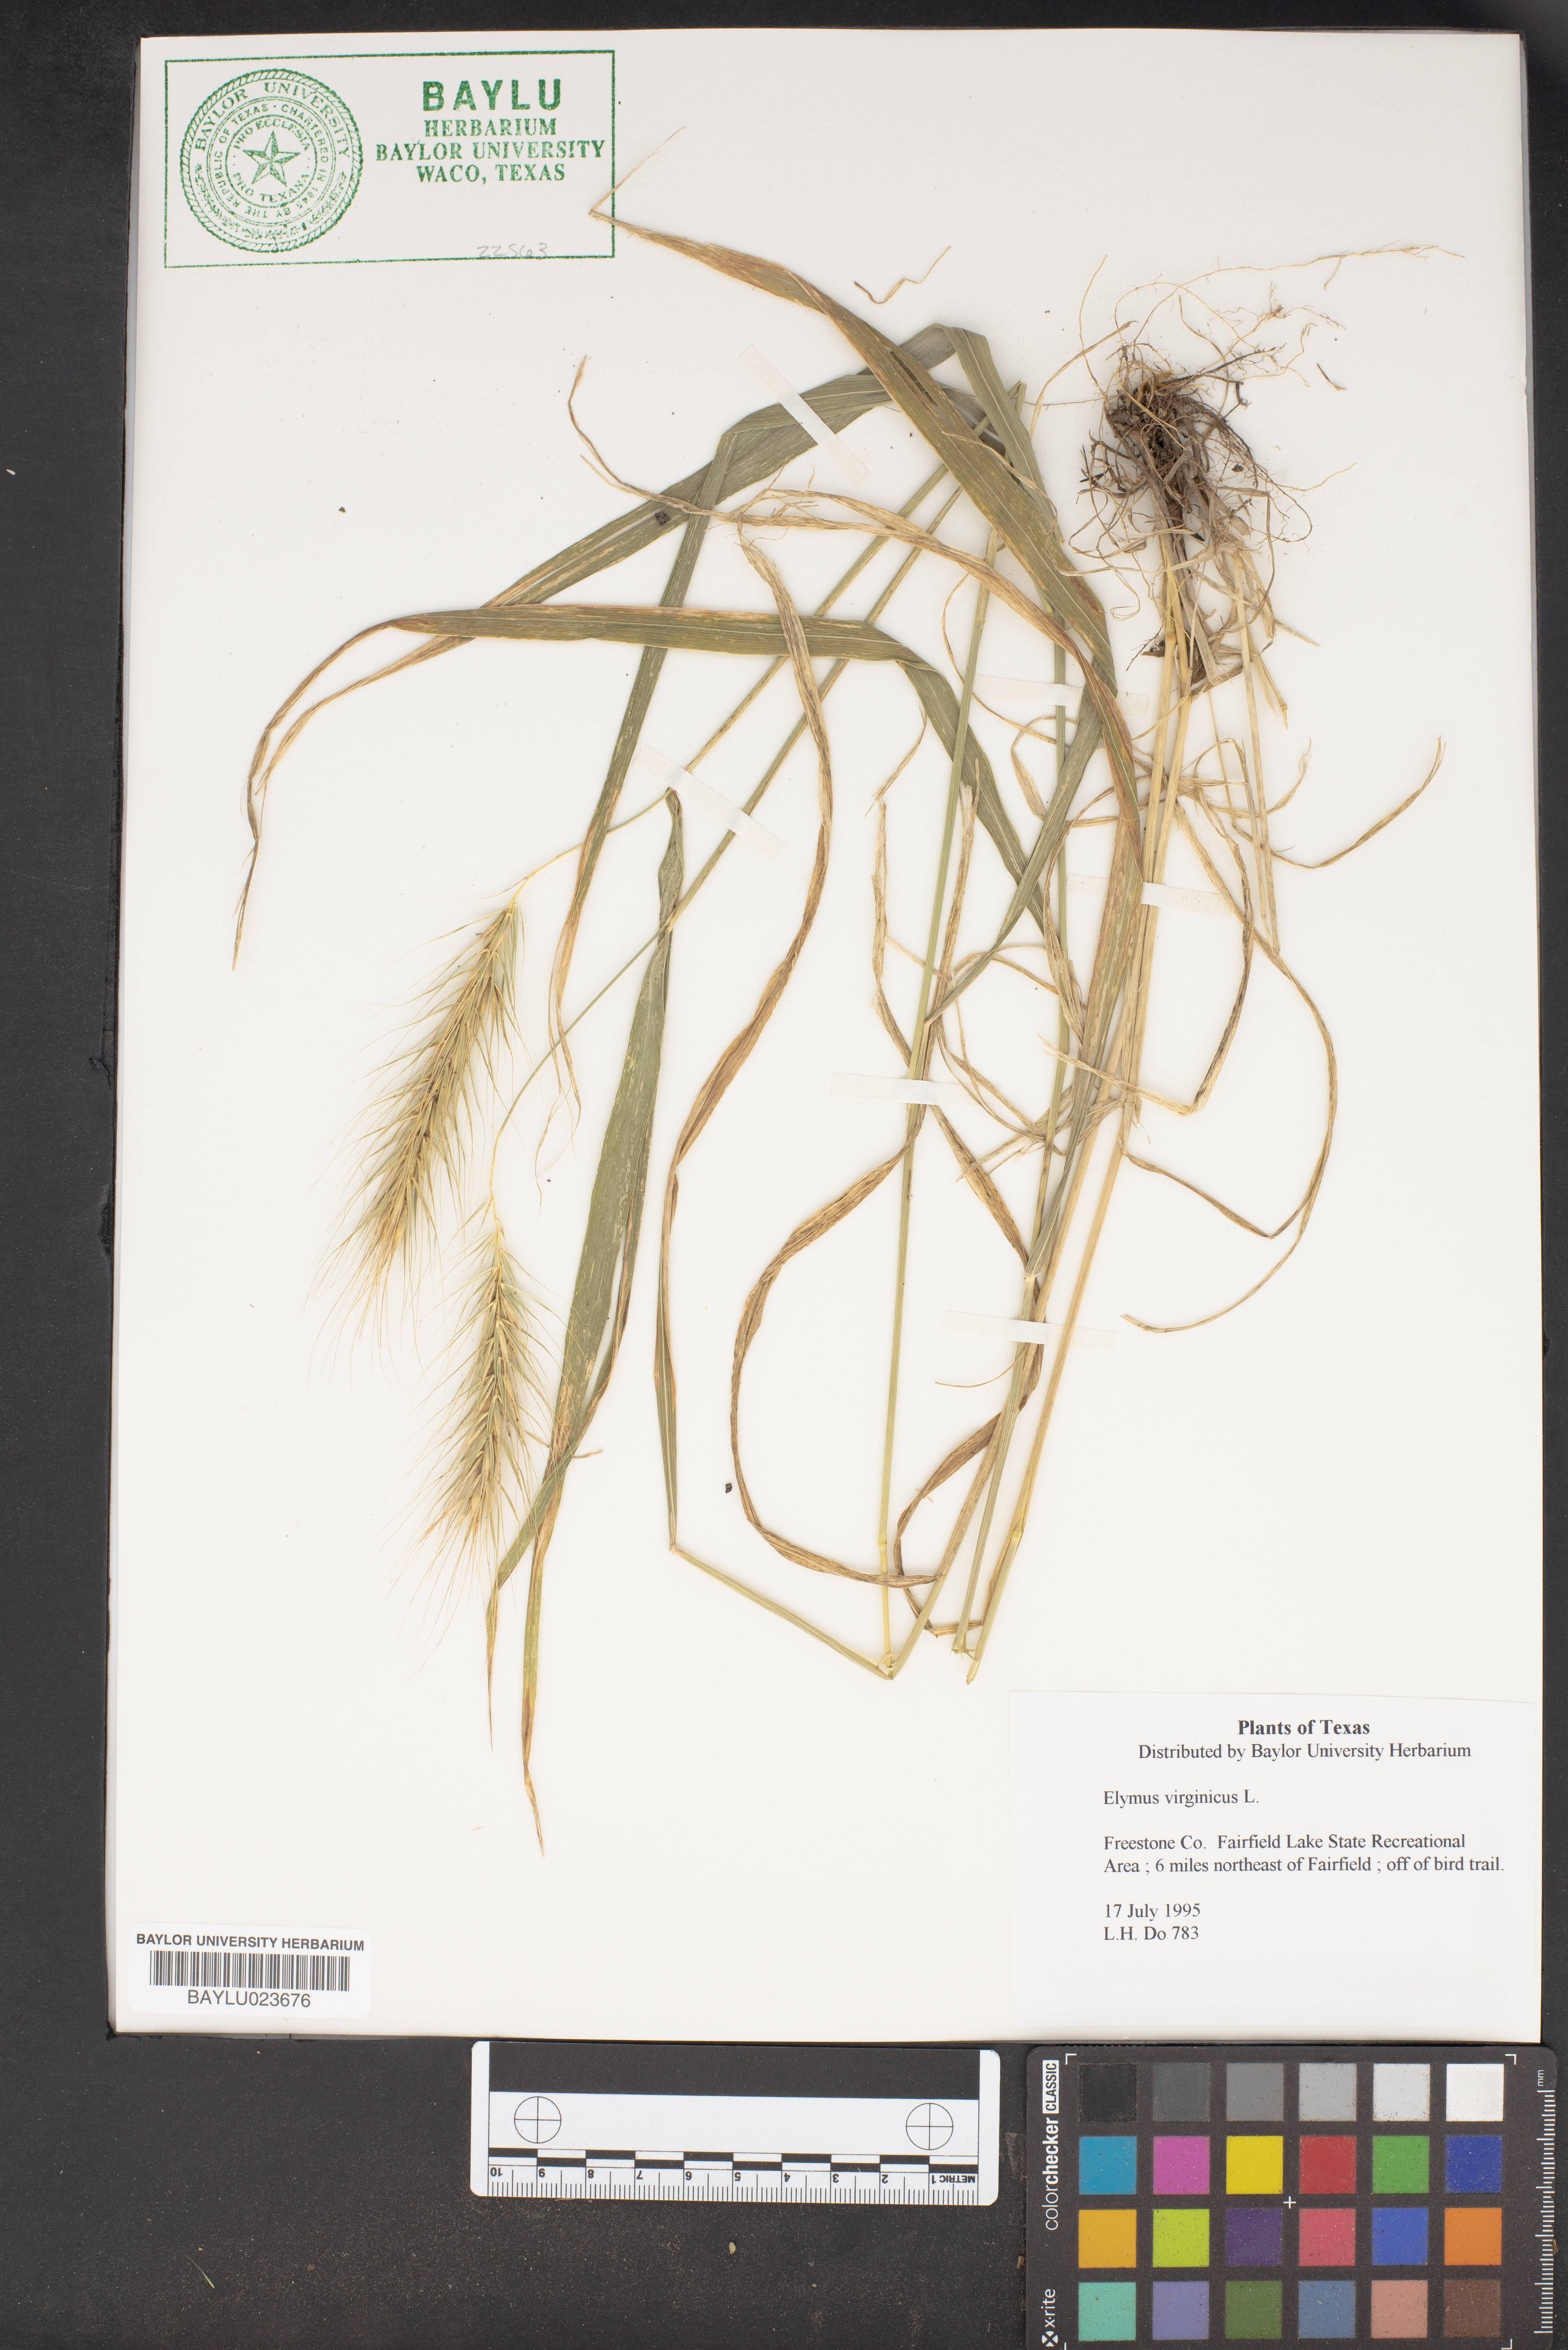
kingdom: Plantae
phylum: Tracheophyta
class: Liliopsida
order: Poales
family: Poaceae
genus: Elymus
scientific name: Elymus virginicus
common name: Common eastern wildrye
